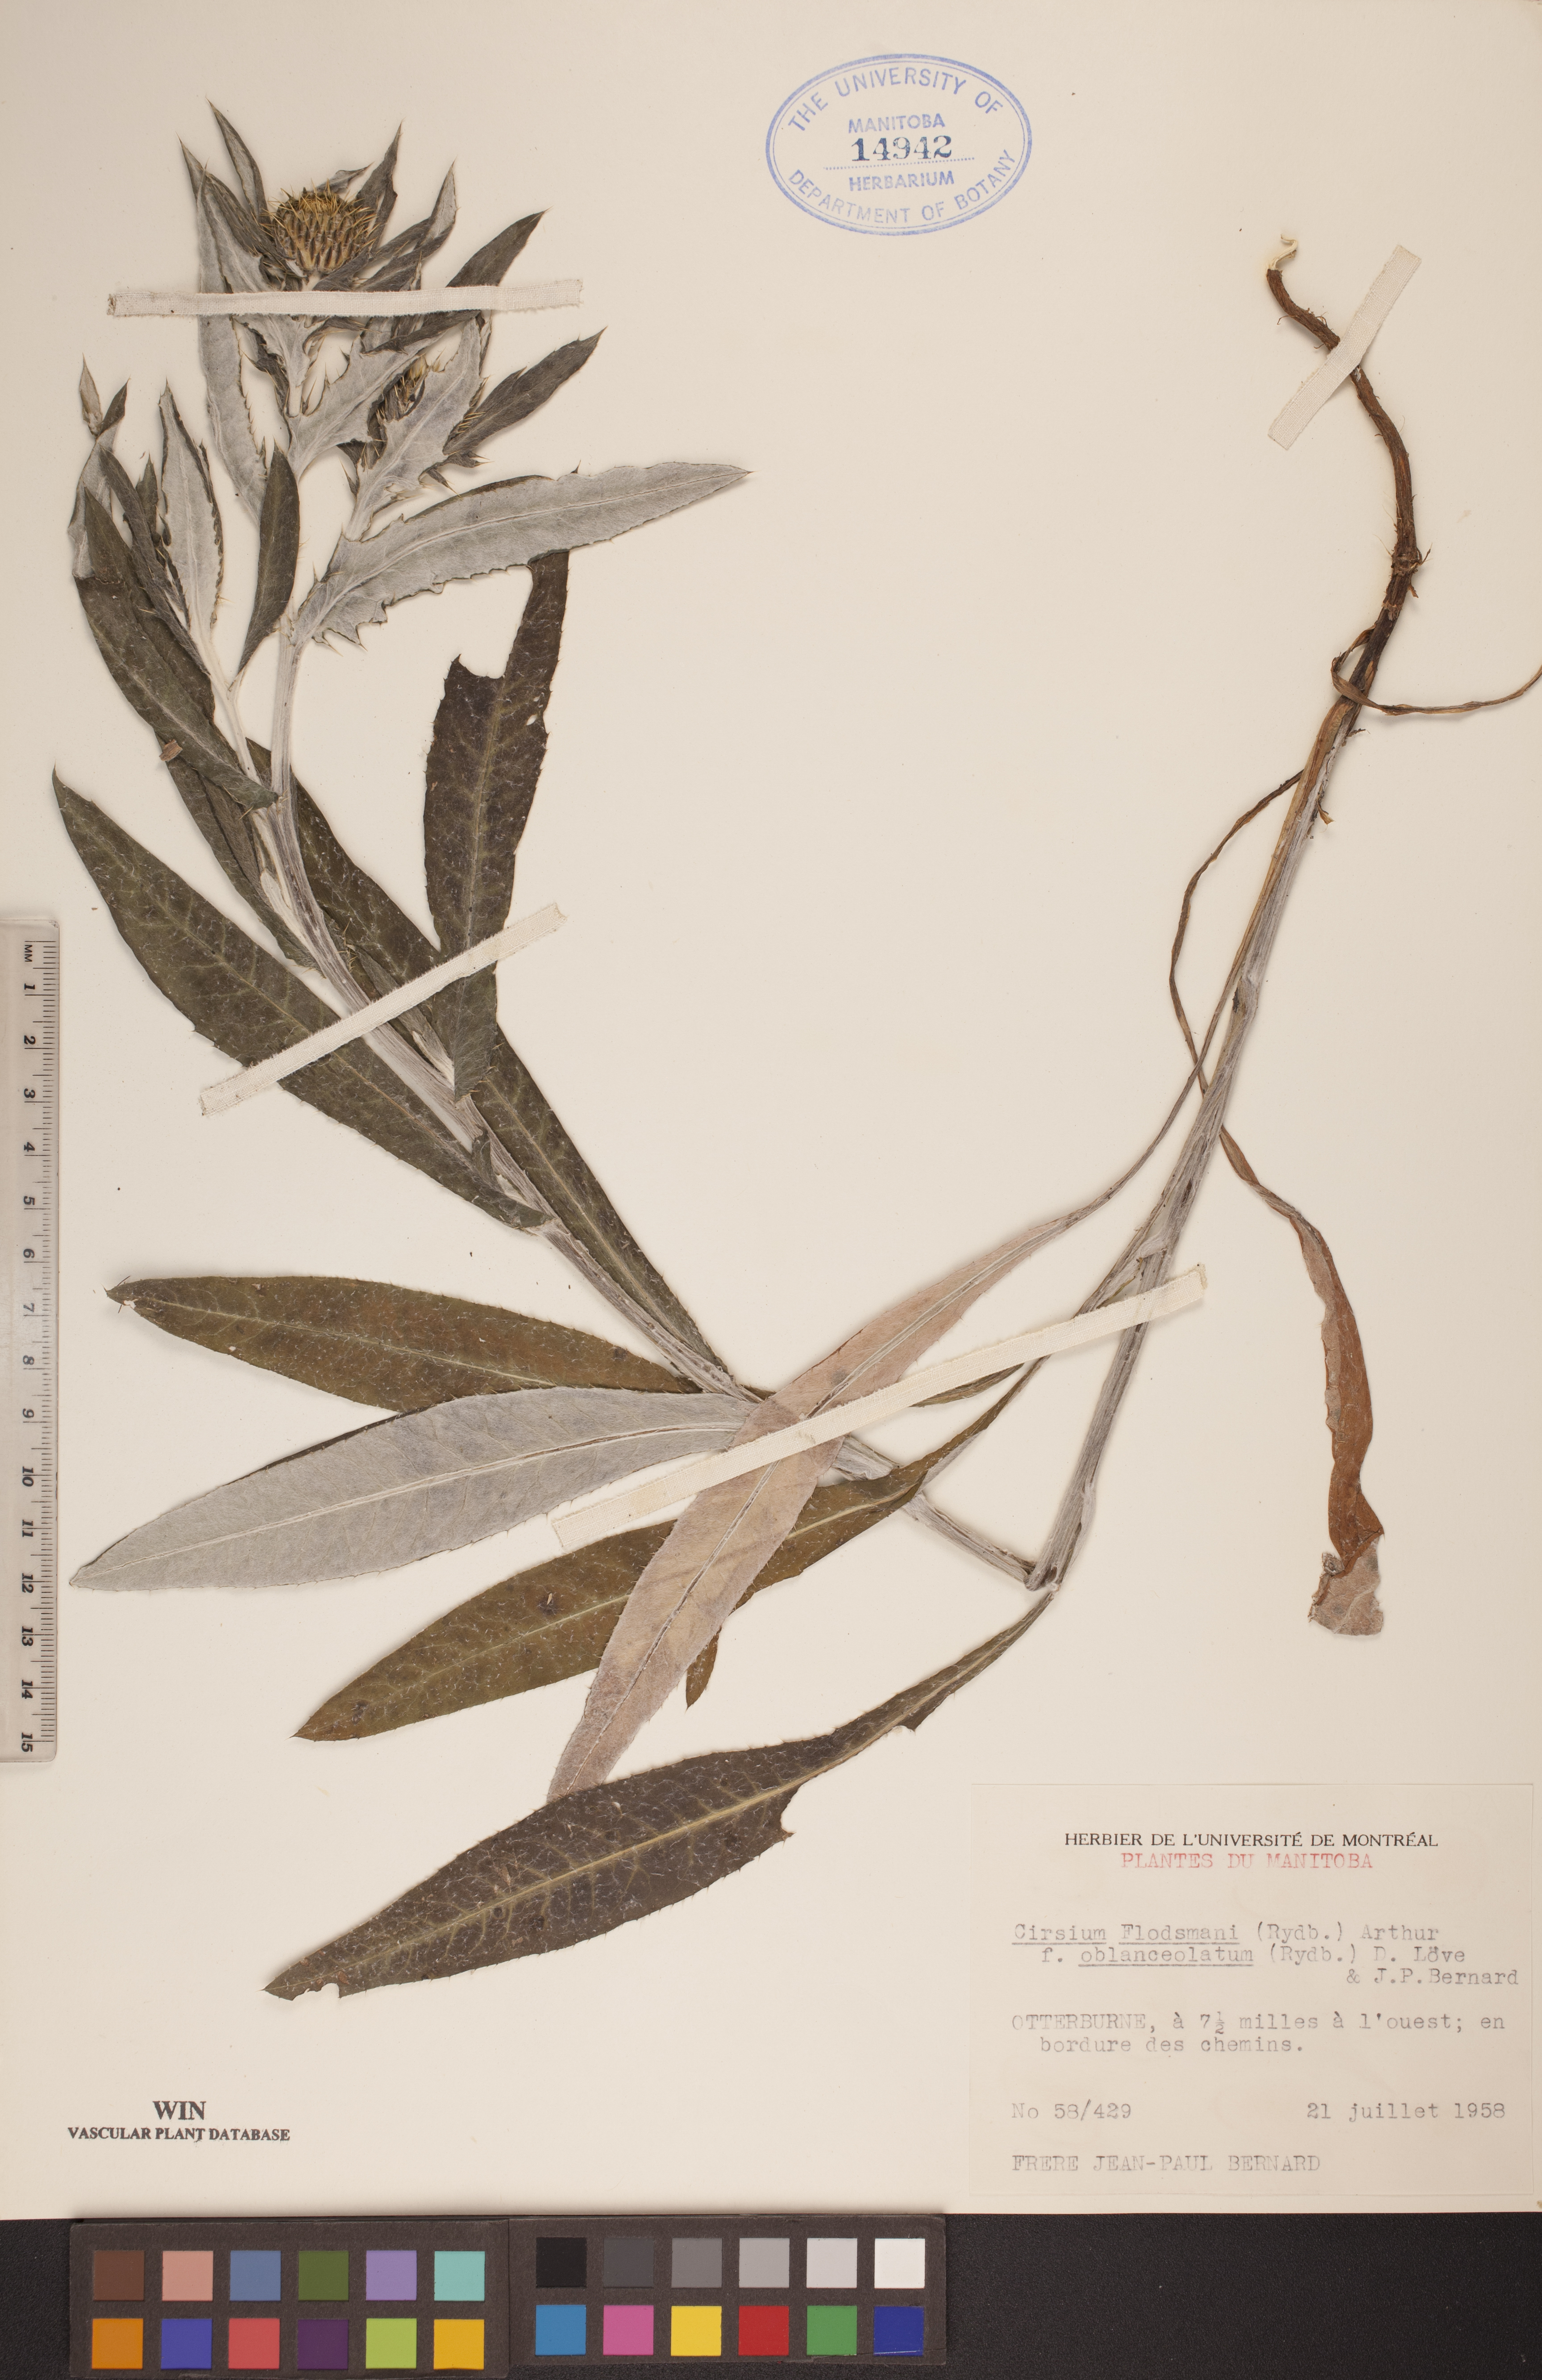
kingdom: Plantae
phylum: Tracheophyta
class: Magnoliopsida
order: Asterales
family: Asteraceae
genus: Cirsium
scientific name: Cirsium flodmanii
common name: Flodman's thistle
